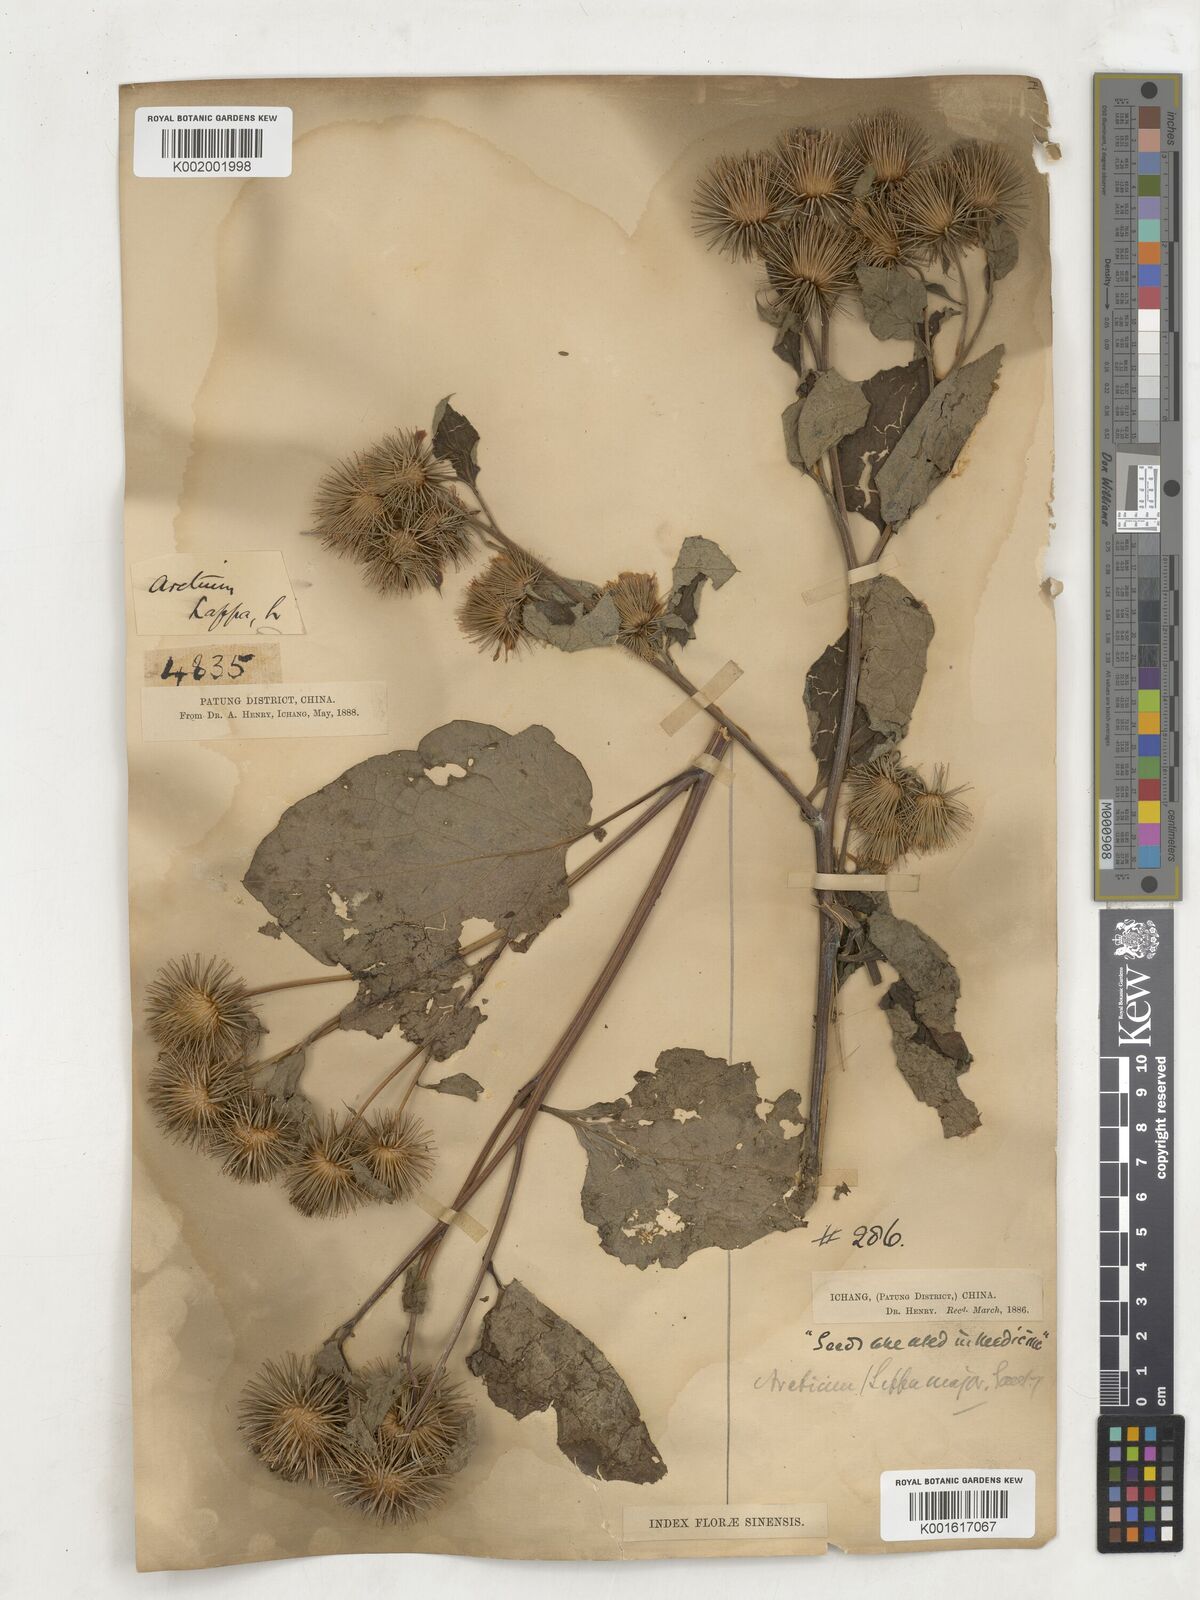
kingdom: Plantae
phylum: Tracheophyta
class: Magnoliopsida
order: Asterales
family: Asteraceae
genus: Arctium
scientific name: Arctium lappa
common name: Greater burdock
